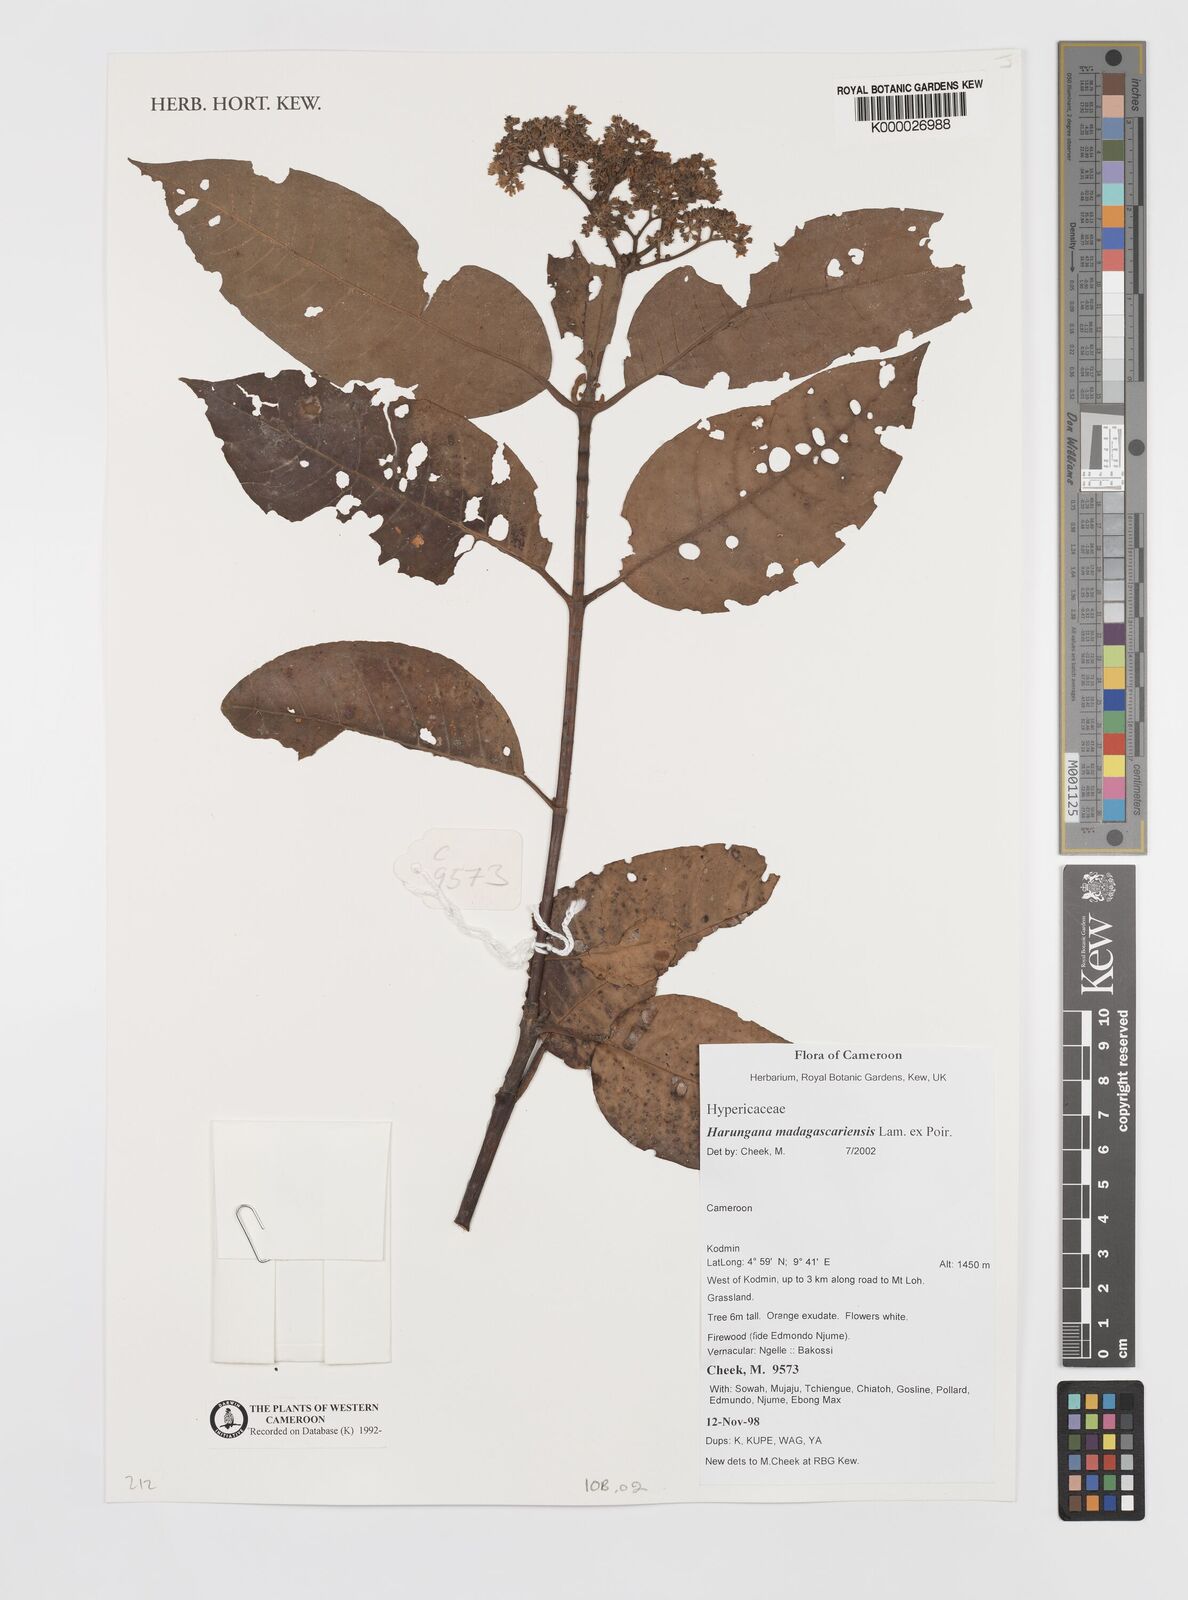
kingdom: Plantae
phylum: Tracheophyta
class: Magnoliopsida
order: Malpighiales
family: Hypericaceae
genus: Harungana
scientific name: Harungana madagascariensis
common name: Orange milktree
